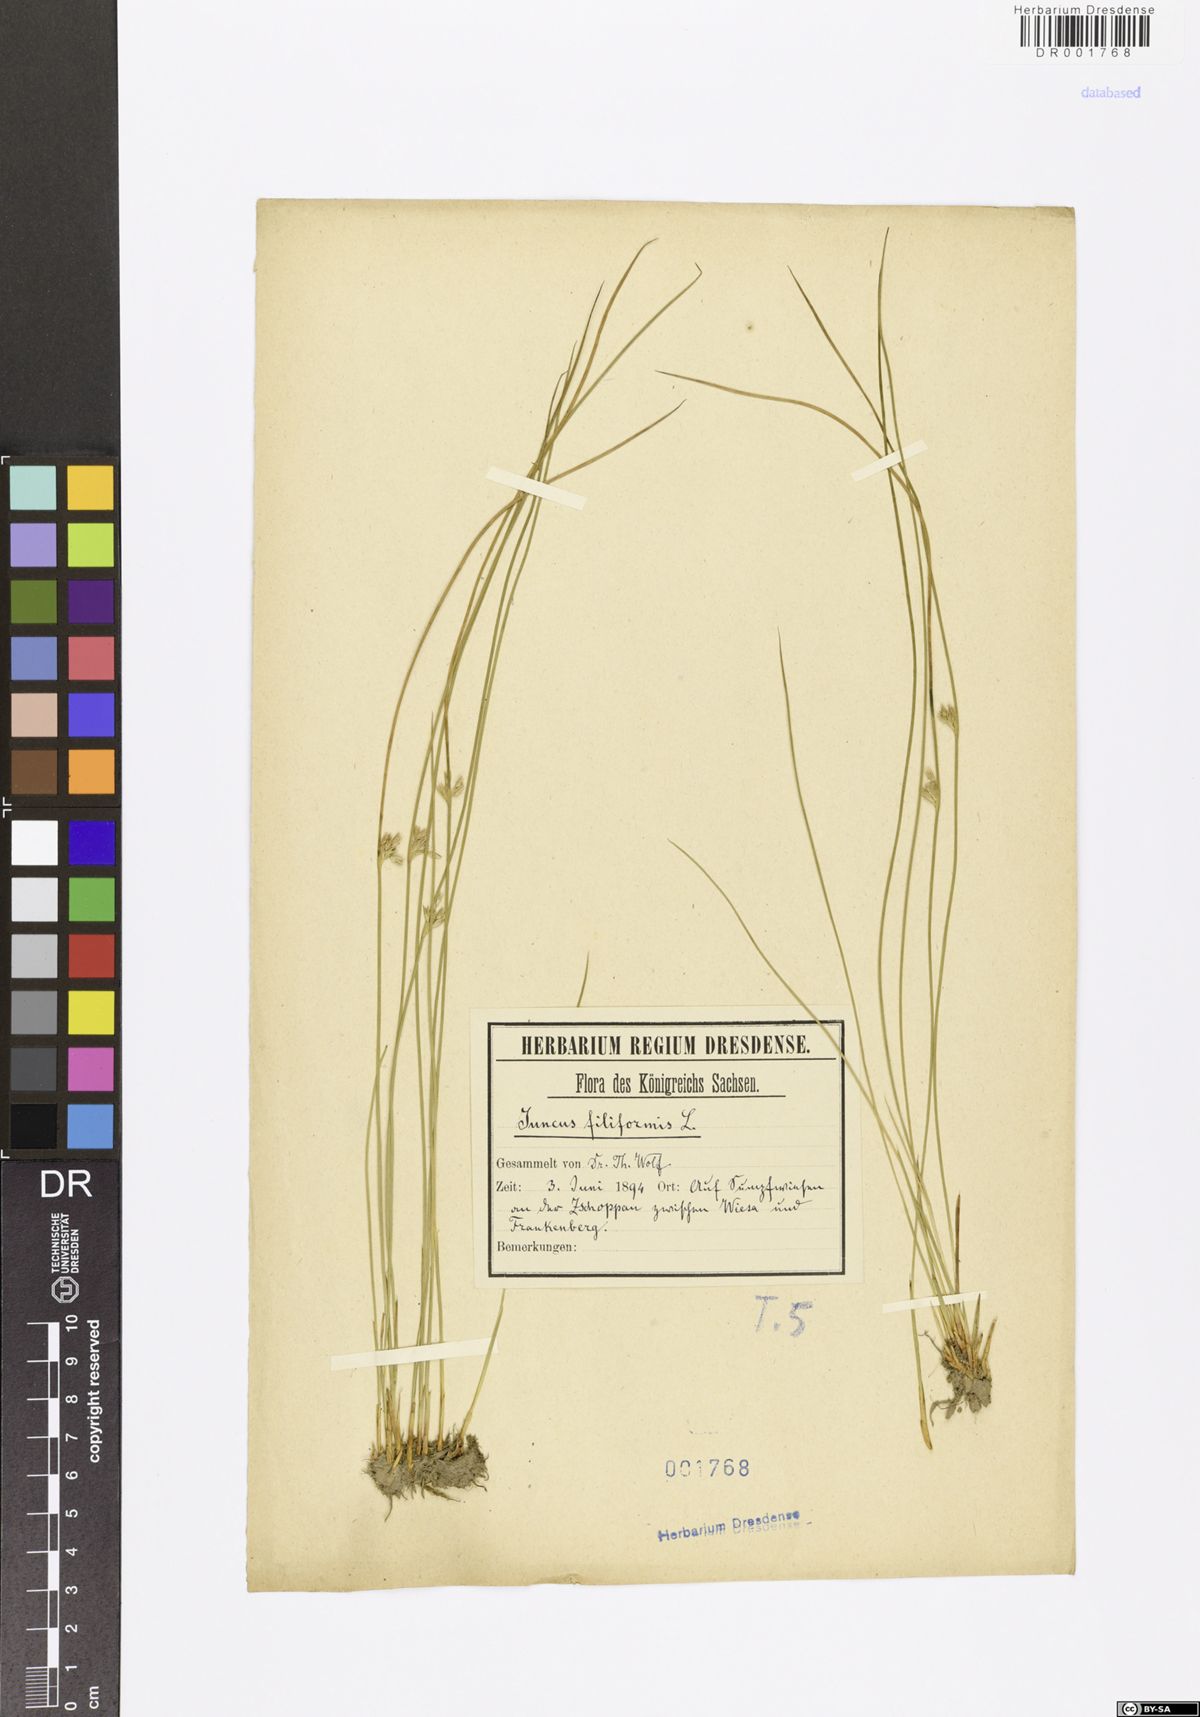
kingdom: Plantae
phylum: Tracheophyta
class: Liliopsida
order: Poales
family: Juncaceae
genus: Juncus
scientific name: Juncus inflexus
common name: Hard rush
